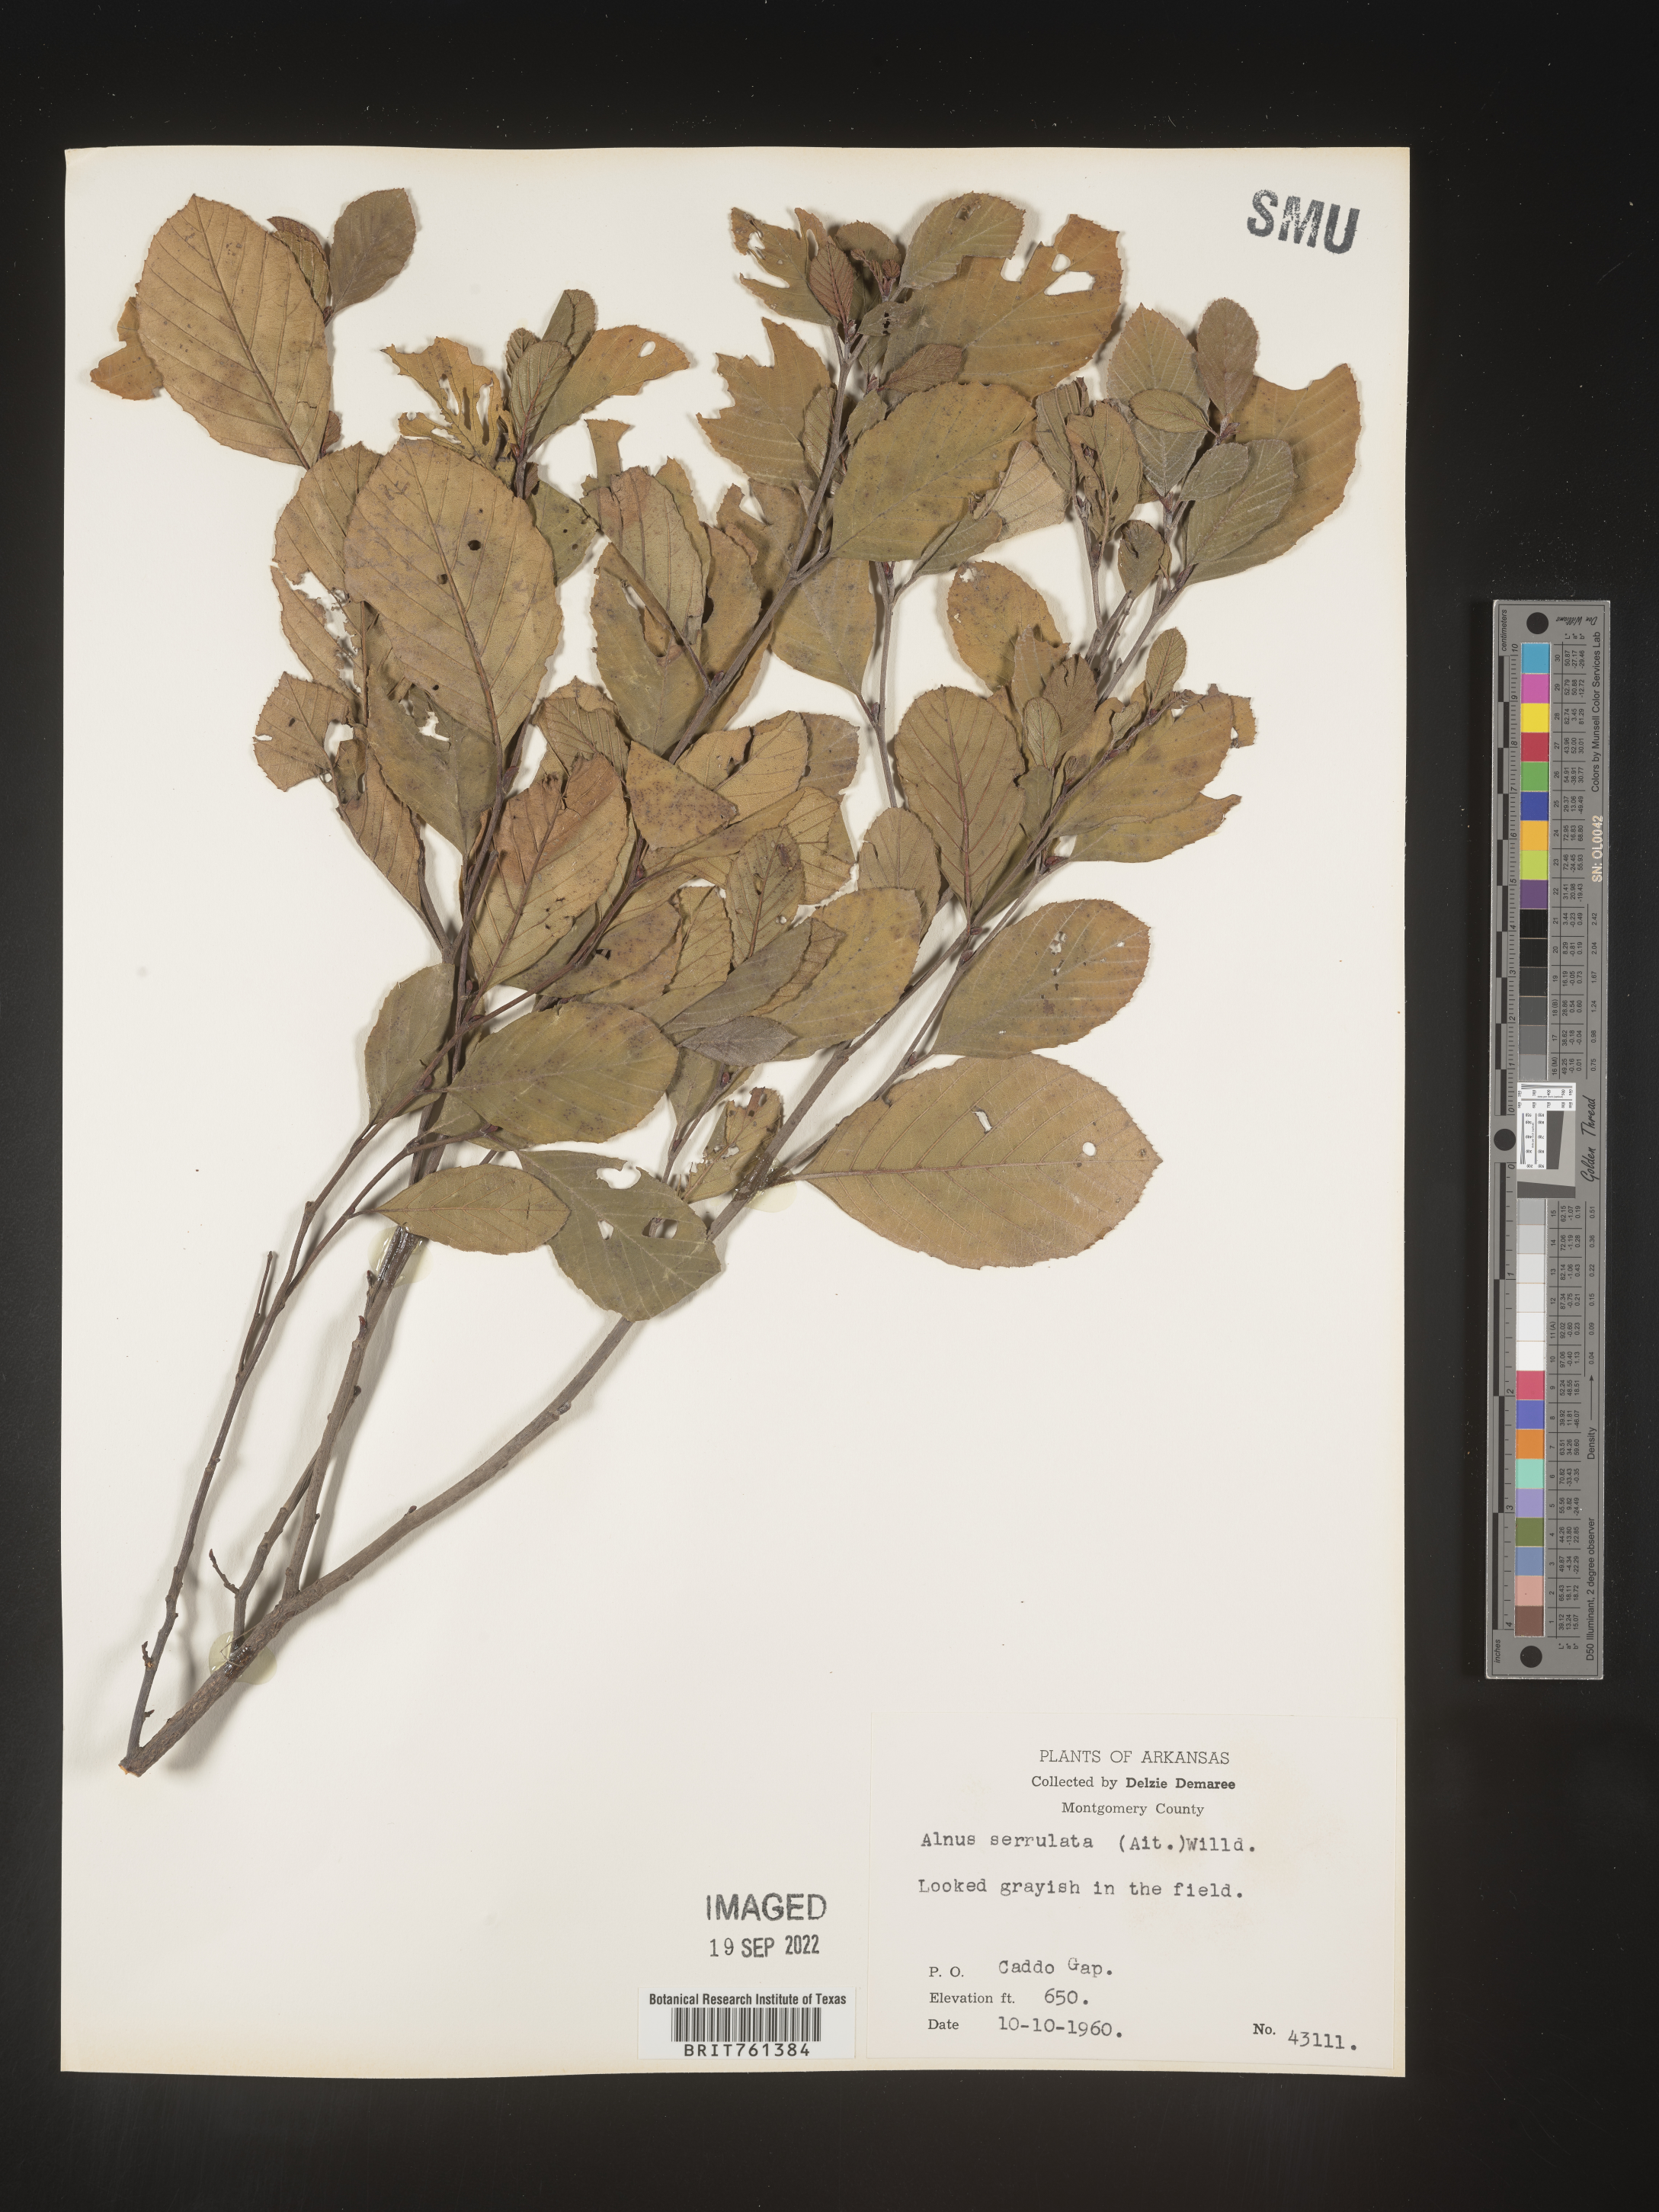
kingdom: Plantae
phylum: Tracheophyta
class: Magnoliopsida
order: Fagales
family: Betulaceae
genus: Alnus
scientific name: Alnus serrulata
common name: Hazel alder
